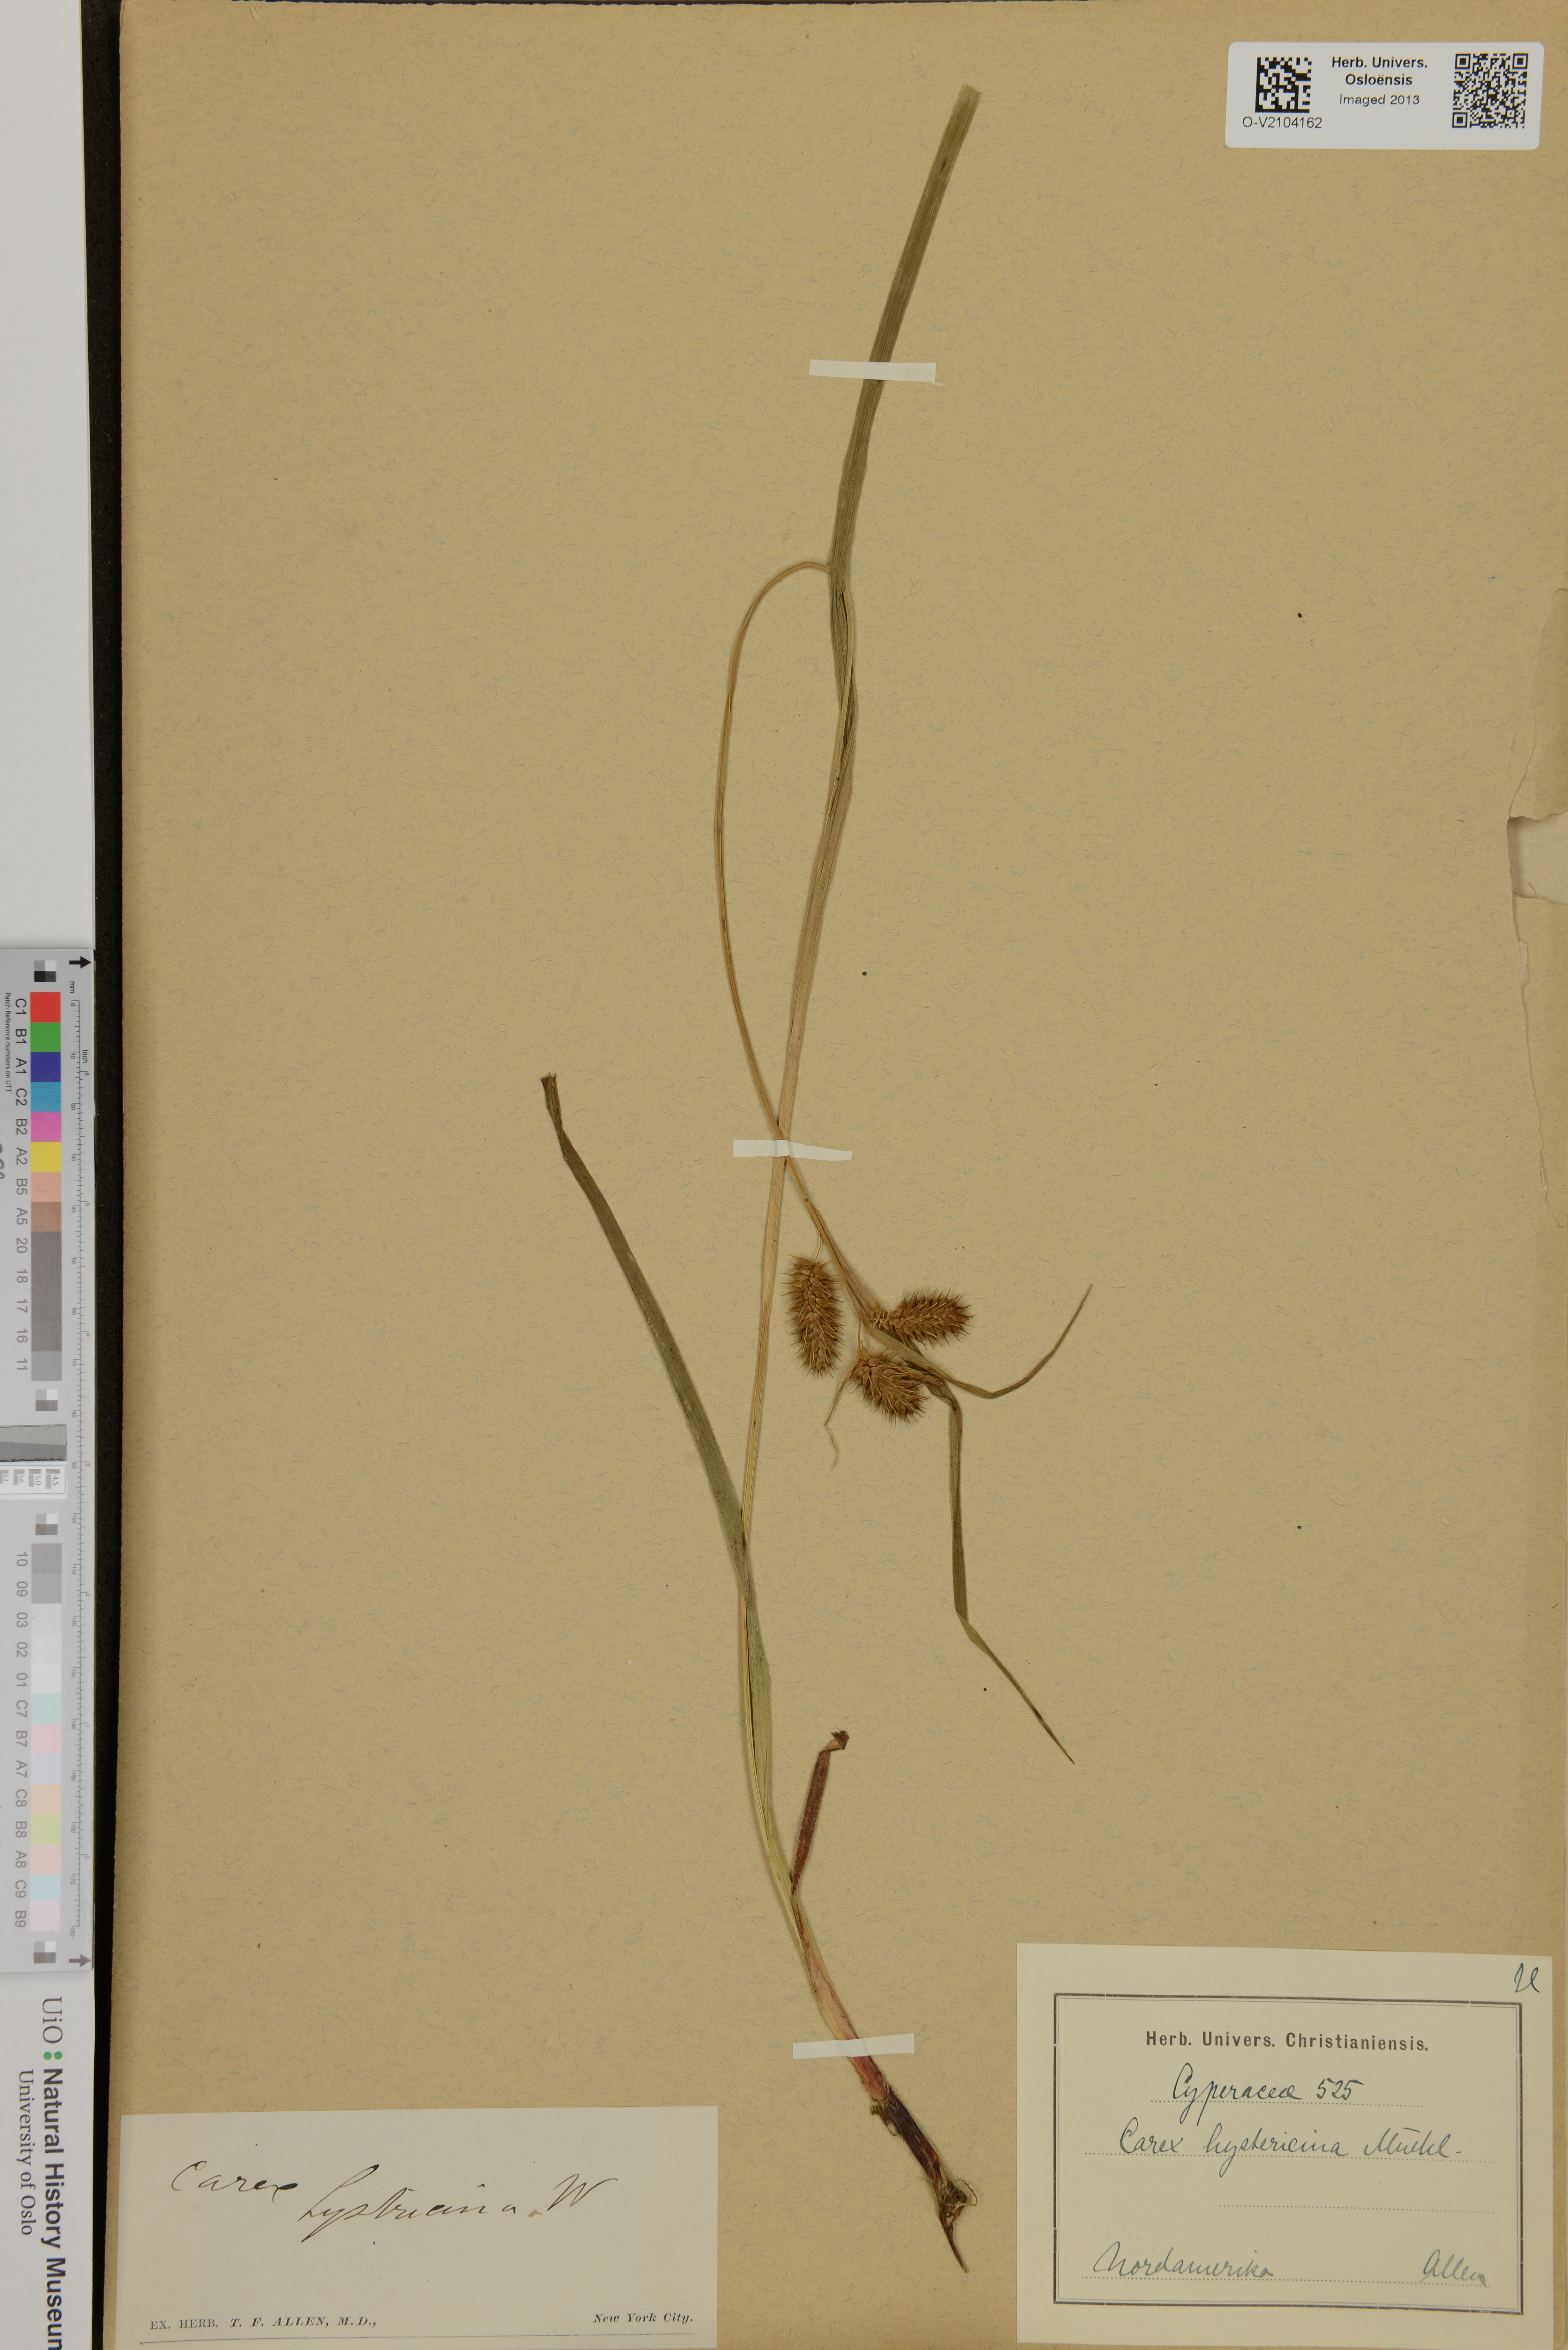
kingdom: Plantae
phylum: Tracheophyta
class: Liliopsida
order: Poales
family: Cyperaceae
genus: Carex
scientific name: Carex hystericina
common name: Bottlebrush sedge
